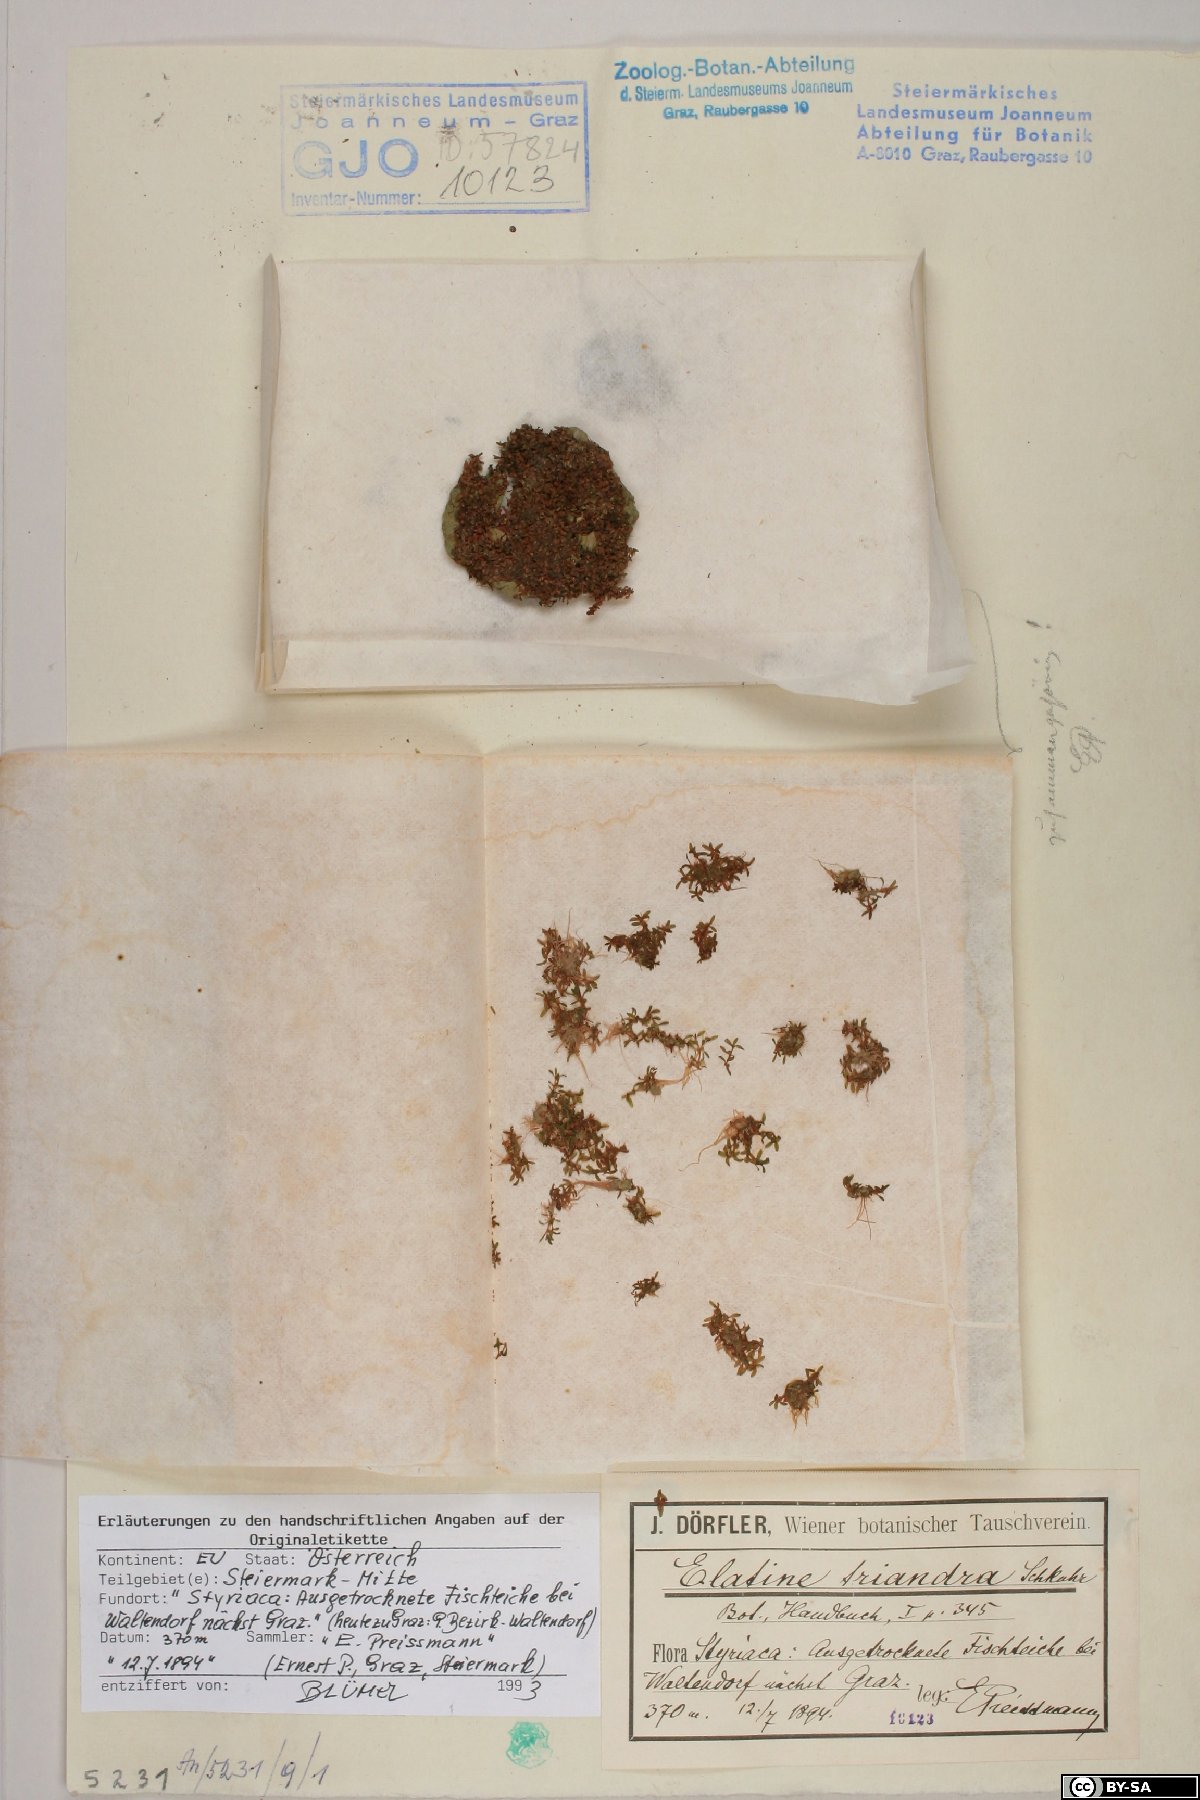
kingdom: Plantae
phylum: Tracheophyta
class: Magnoliopsida
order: Malpighiales
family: Elatinaceae
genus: Elatine
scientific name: Elatine triandra
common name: Three-stamened waterwort
